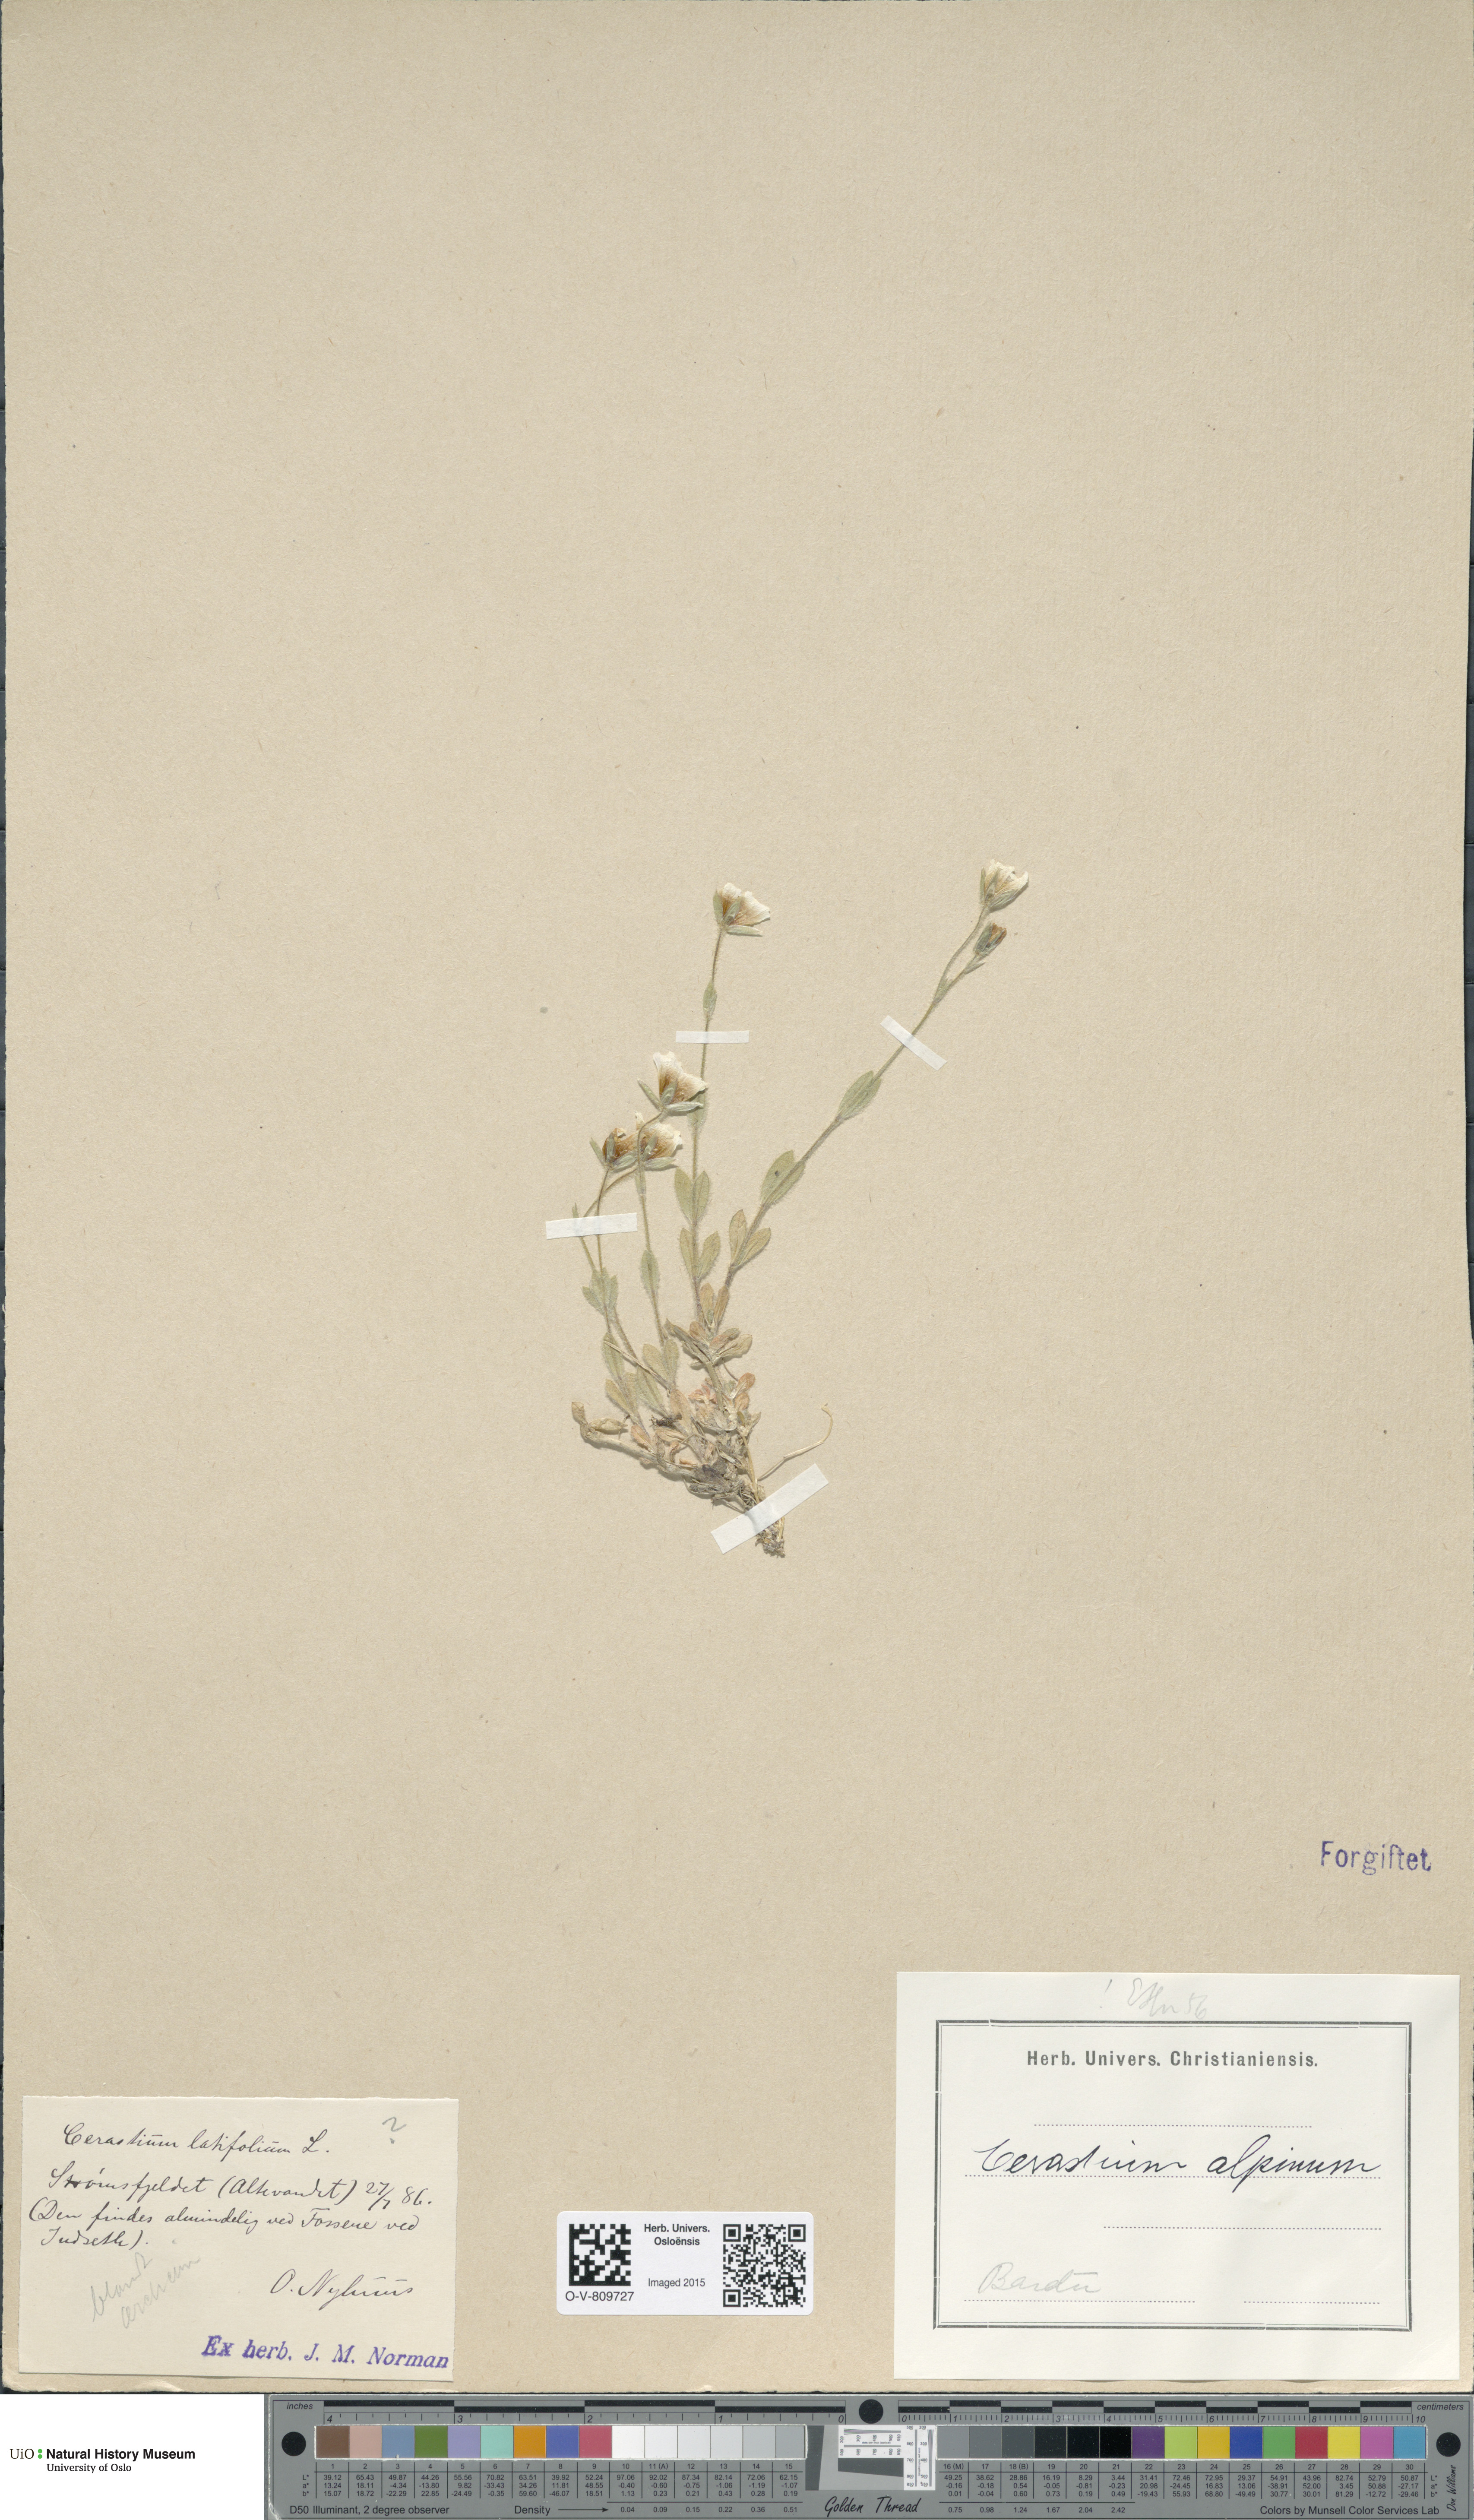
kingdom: Plantae
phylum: Tracheophyta
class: Magnoliopsida
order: Caryophyllales
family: Caryophyllaceae
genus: Cerastium
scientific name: Cerastium alpinum
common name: Alpine mouse-ear
